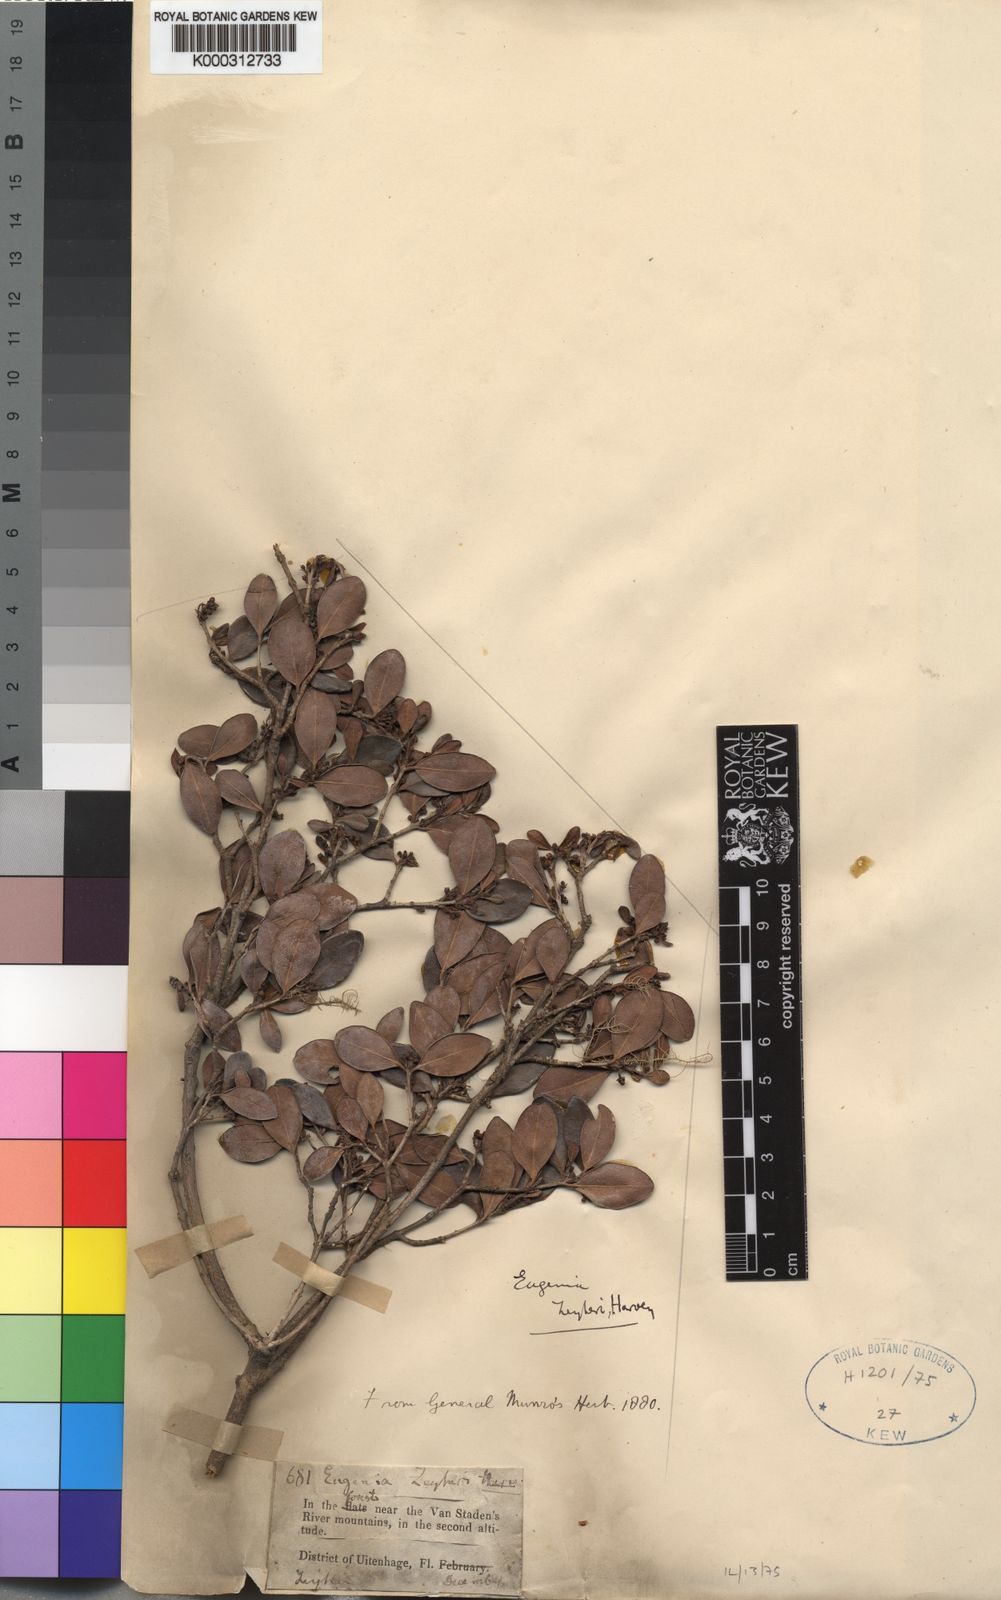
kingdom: Plantae
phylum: Tracheophyta
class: Magnoliopsida
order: Myrtales
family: Myrtaceae
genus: Eugenia
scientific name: Eugenia zeyheri
